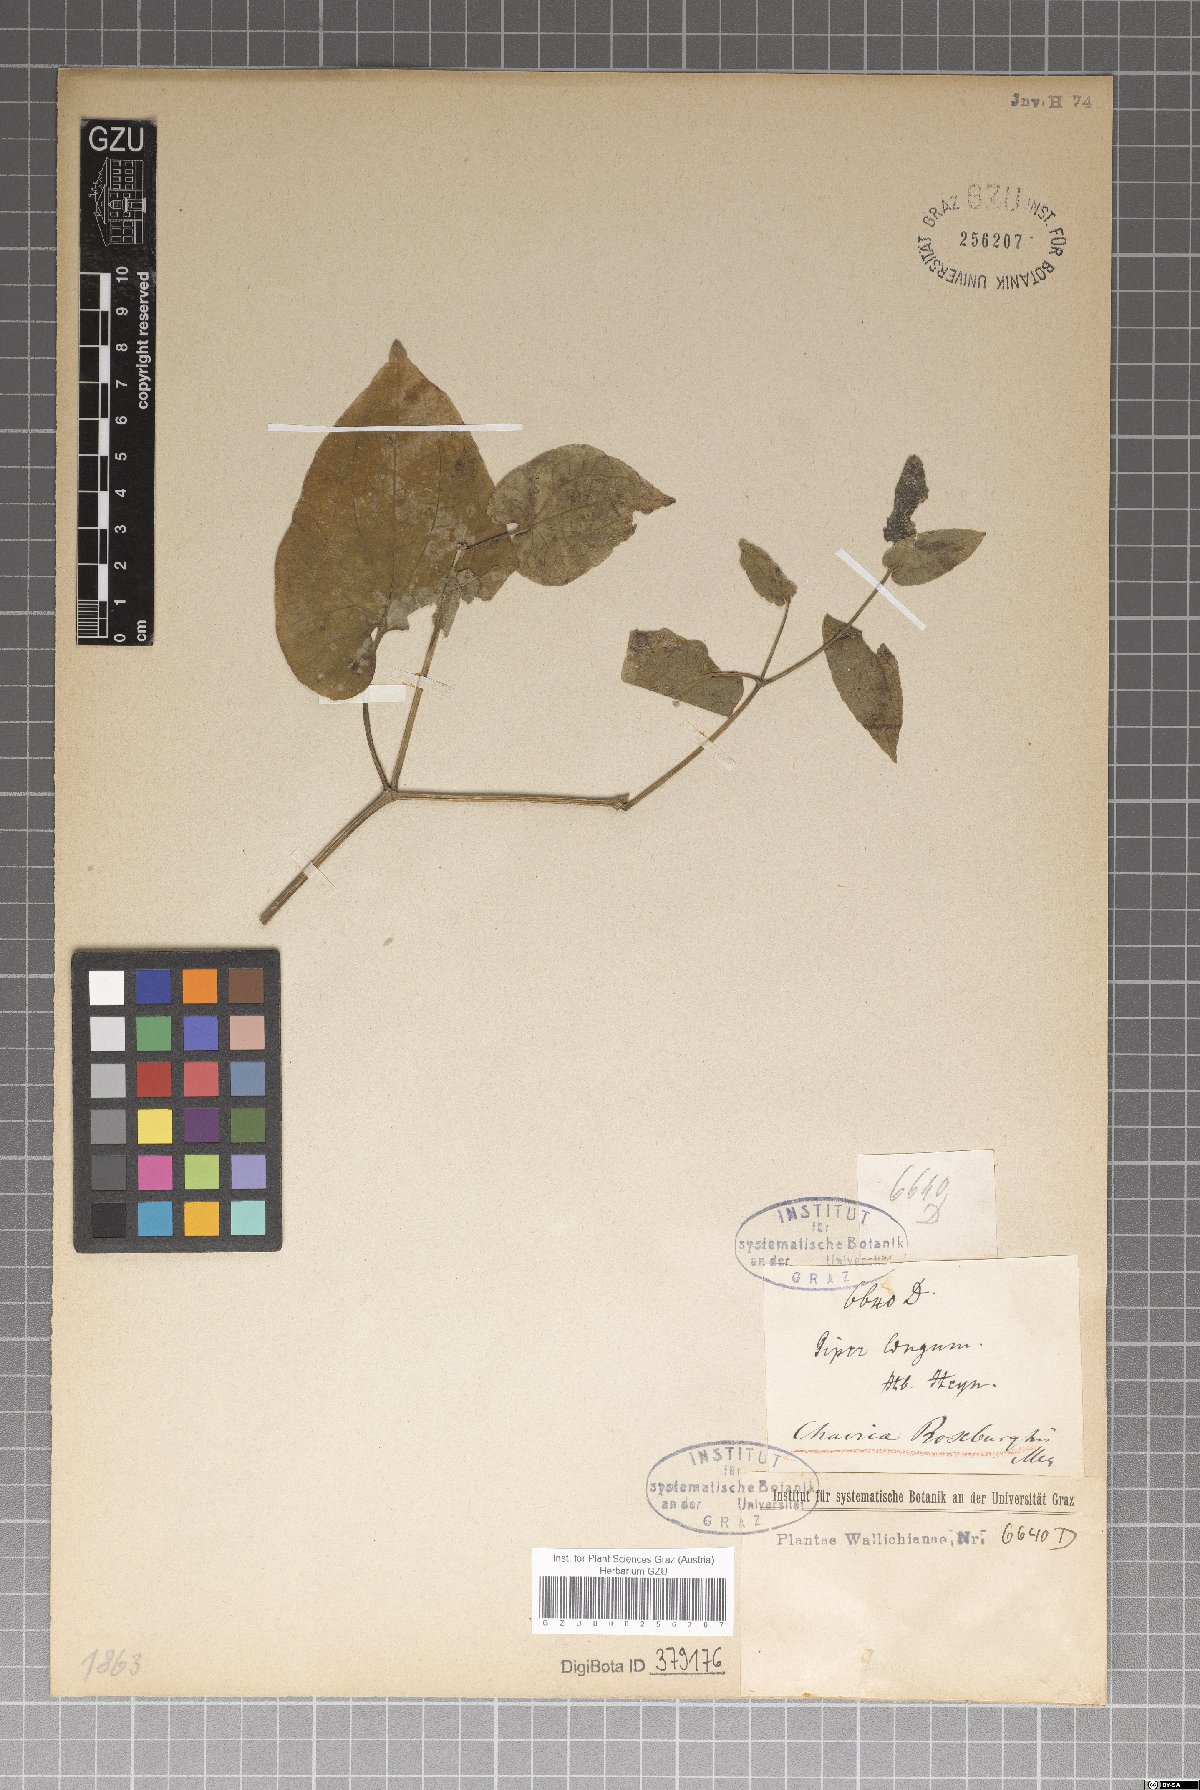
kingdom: Plantae
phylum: Tracheophyta
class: Magnoliopsida
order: Piperales
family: Piperaceae
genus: Piper
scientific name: Piper longum
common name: Long pepper
